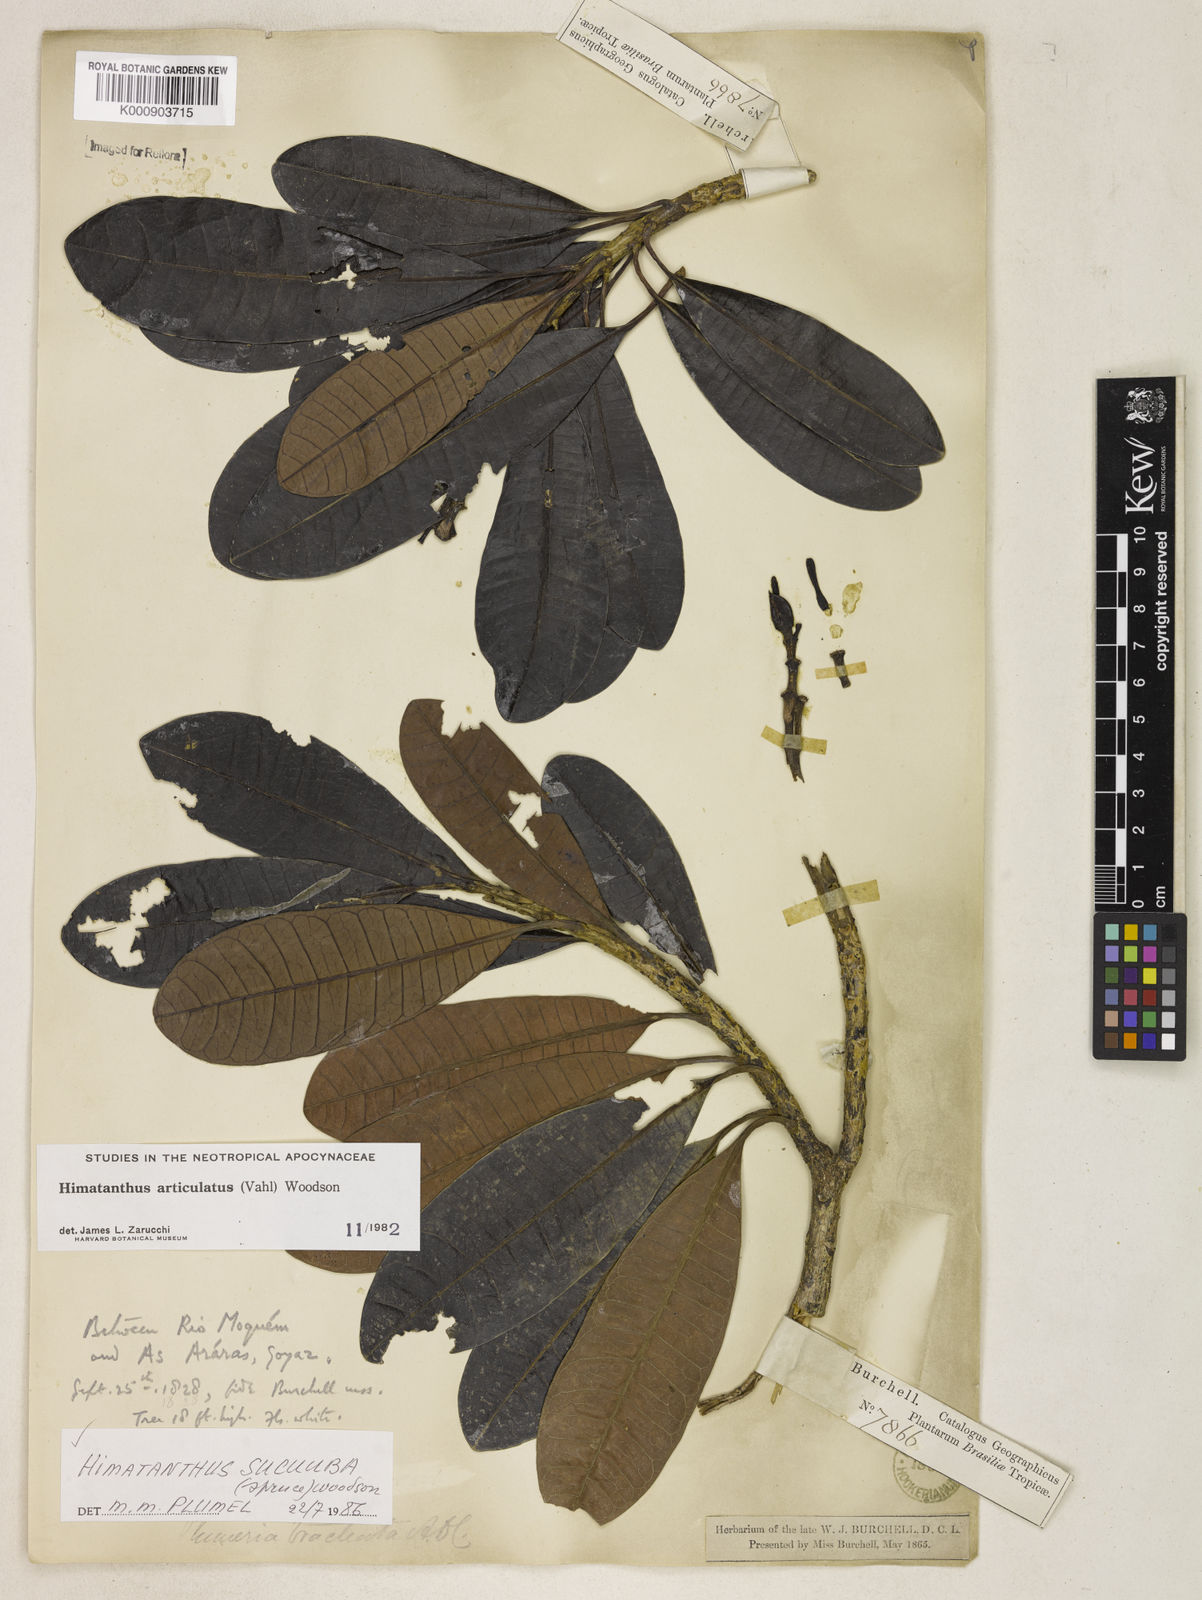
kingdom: Plantae
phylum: Tracheophyta
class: Magnoliopsida
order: Gentianales
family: Apocynaceae
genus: Himatanthus
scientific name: Himatanthus articulatus
